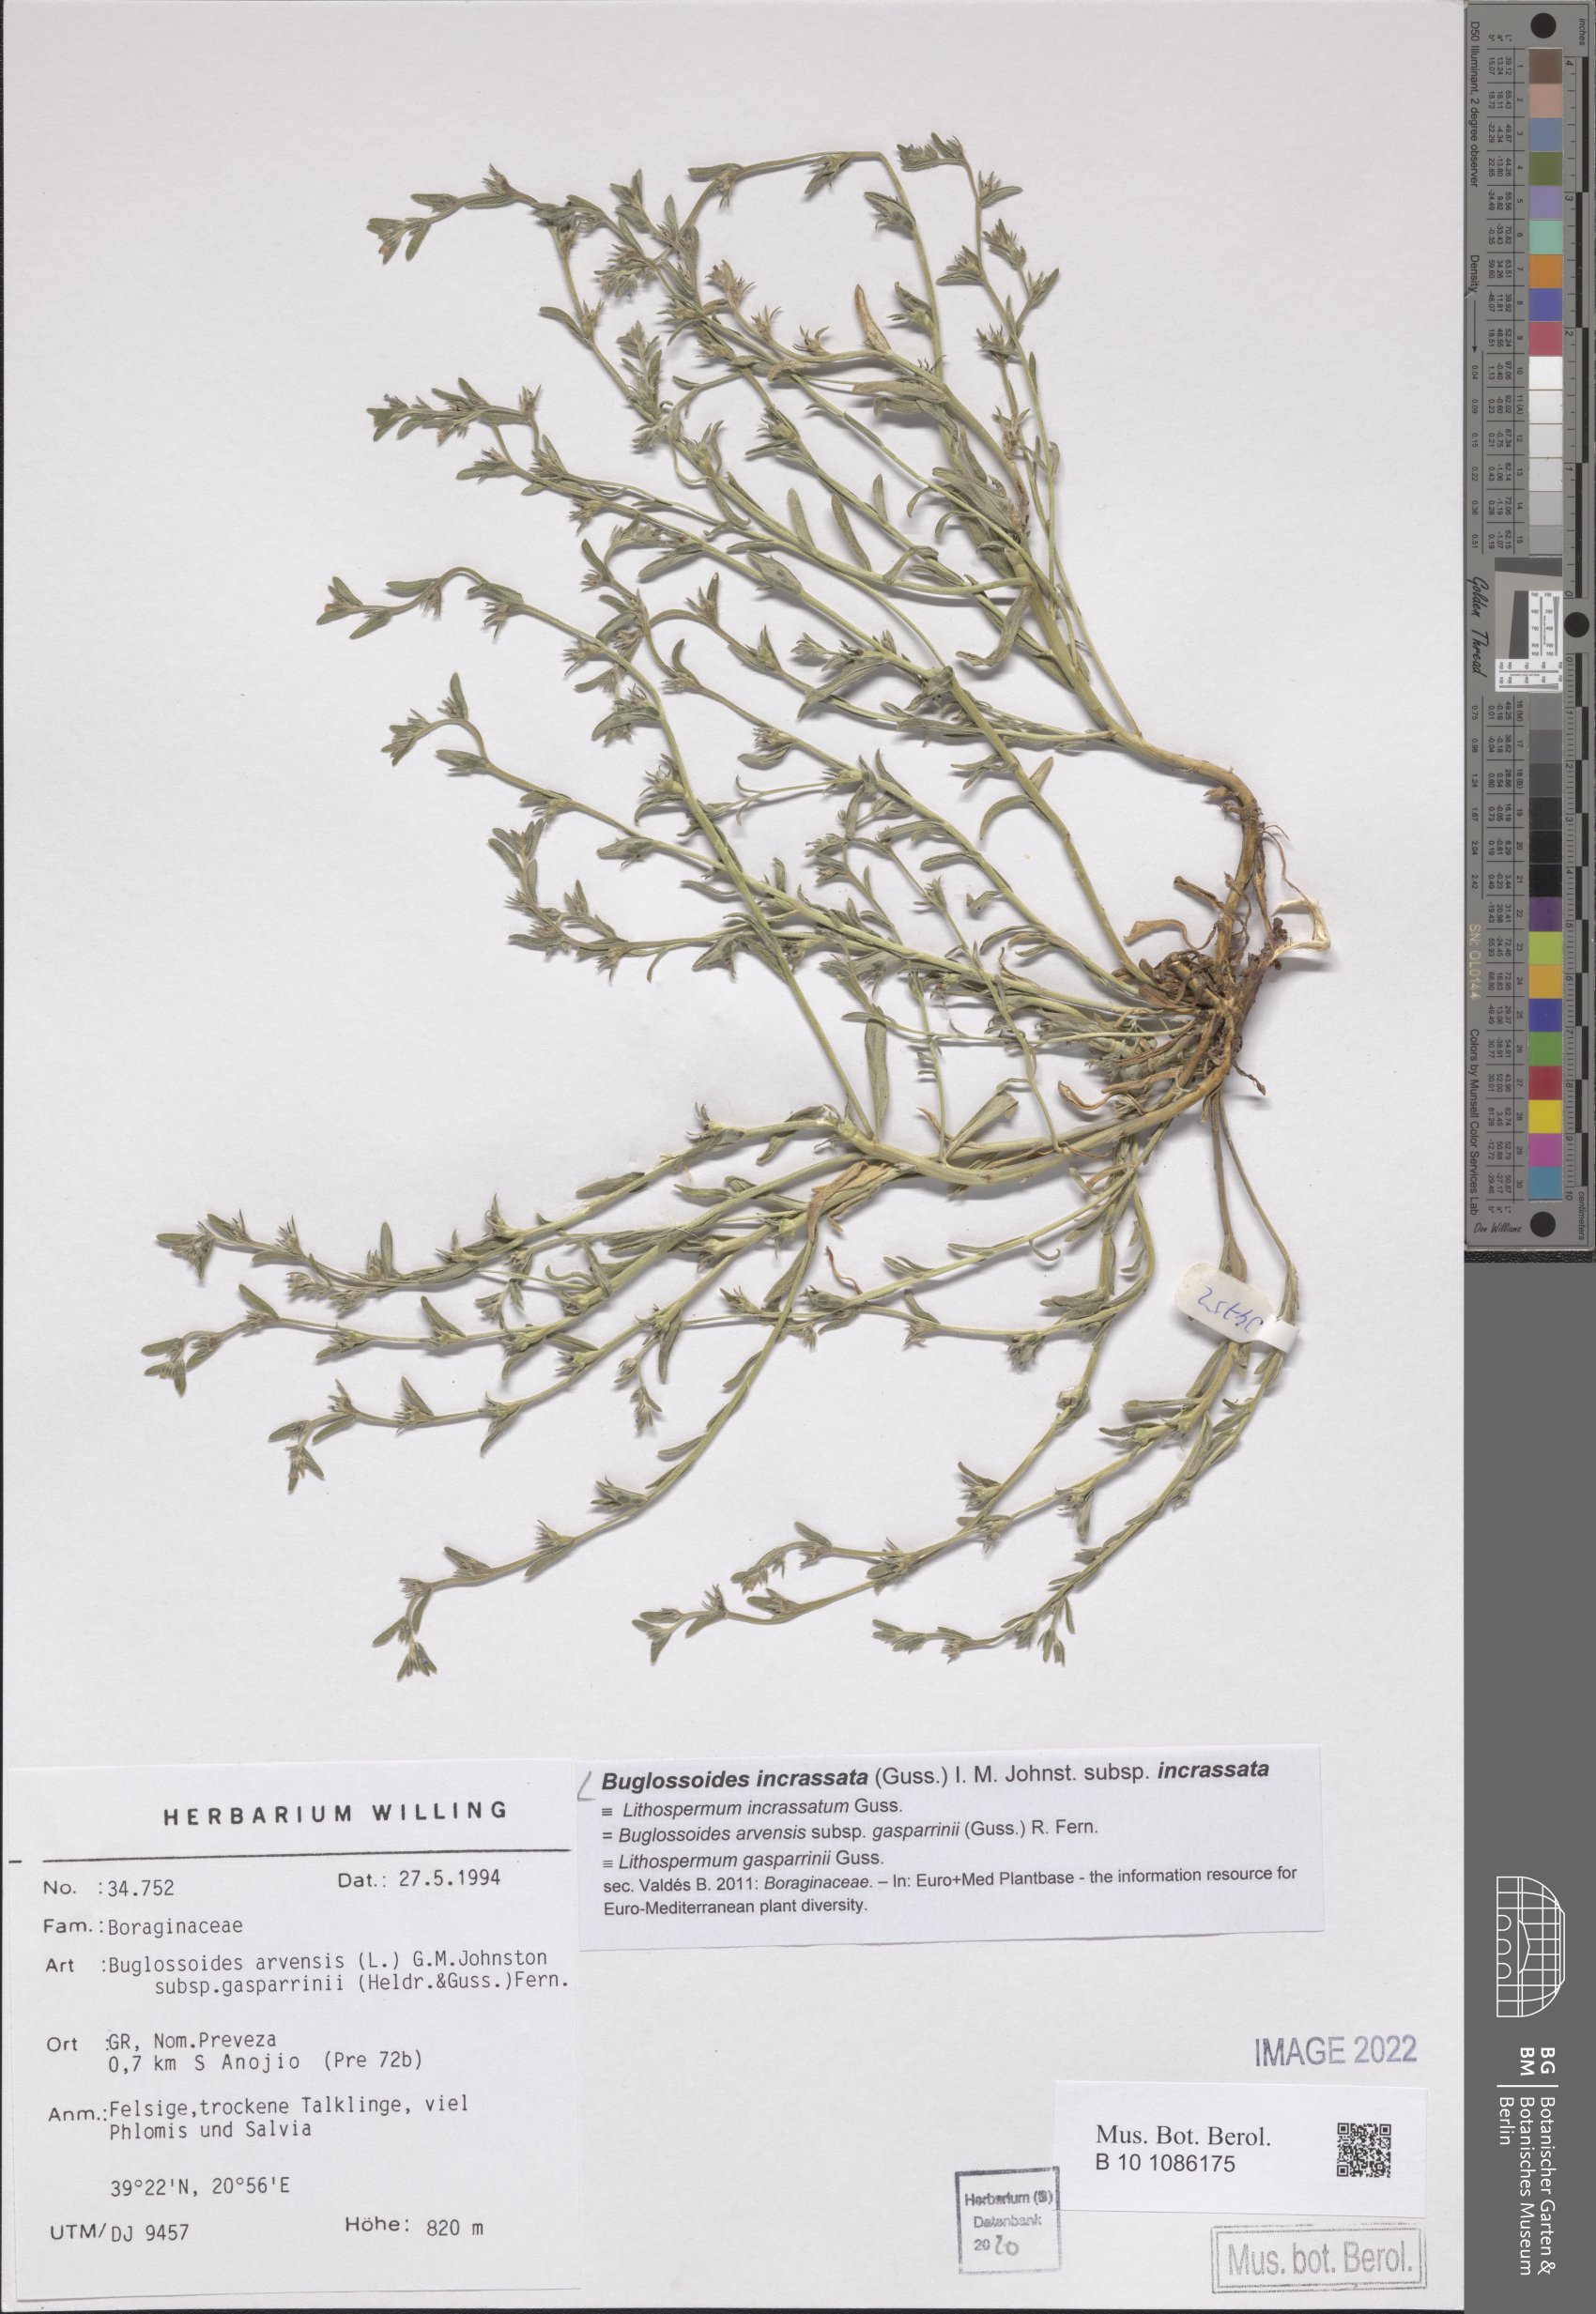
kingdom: Plantae
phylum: Tracheophyta
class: Magnoliopsida
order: Boraginales
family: Boraginaceae
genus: Buglossoides
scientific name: Buglossoides incrassata
